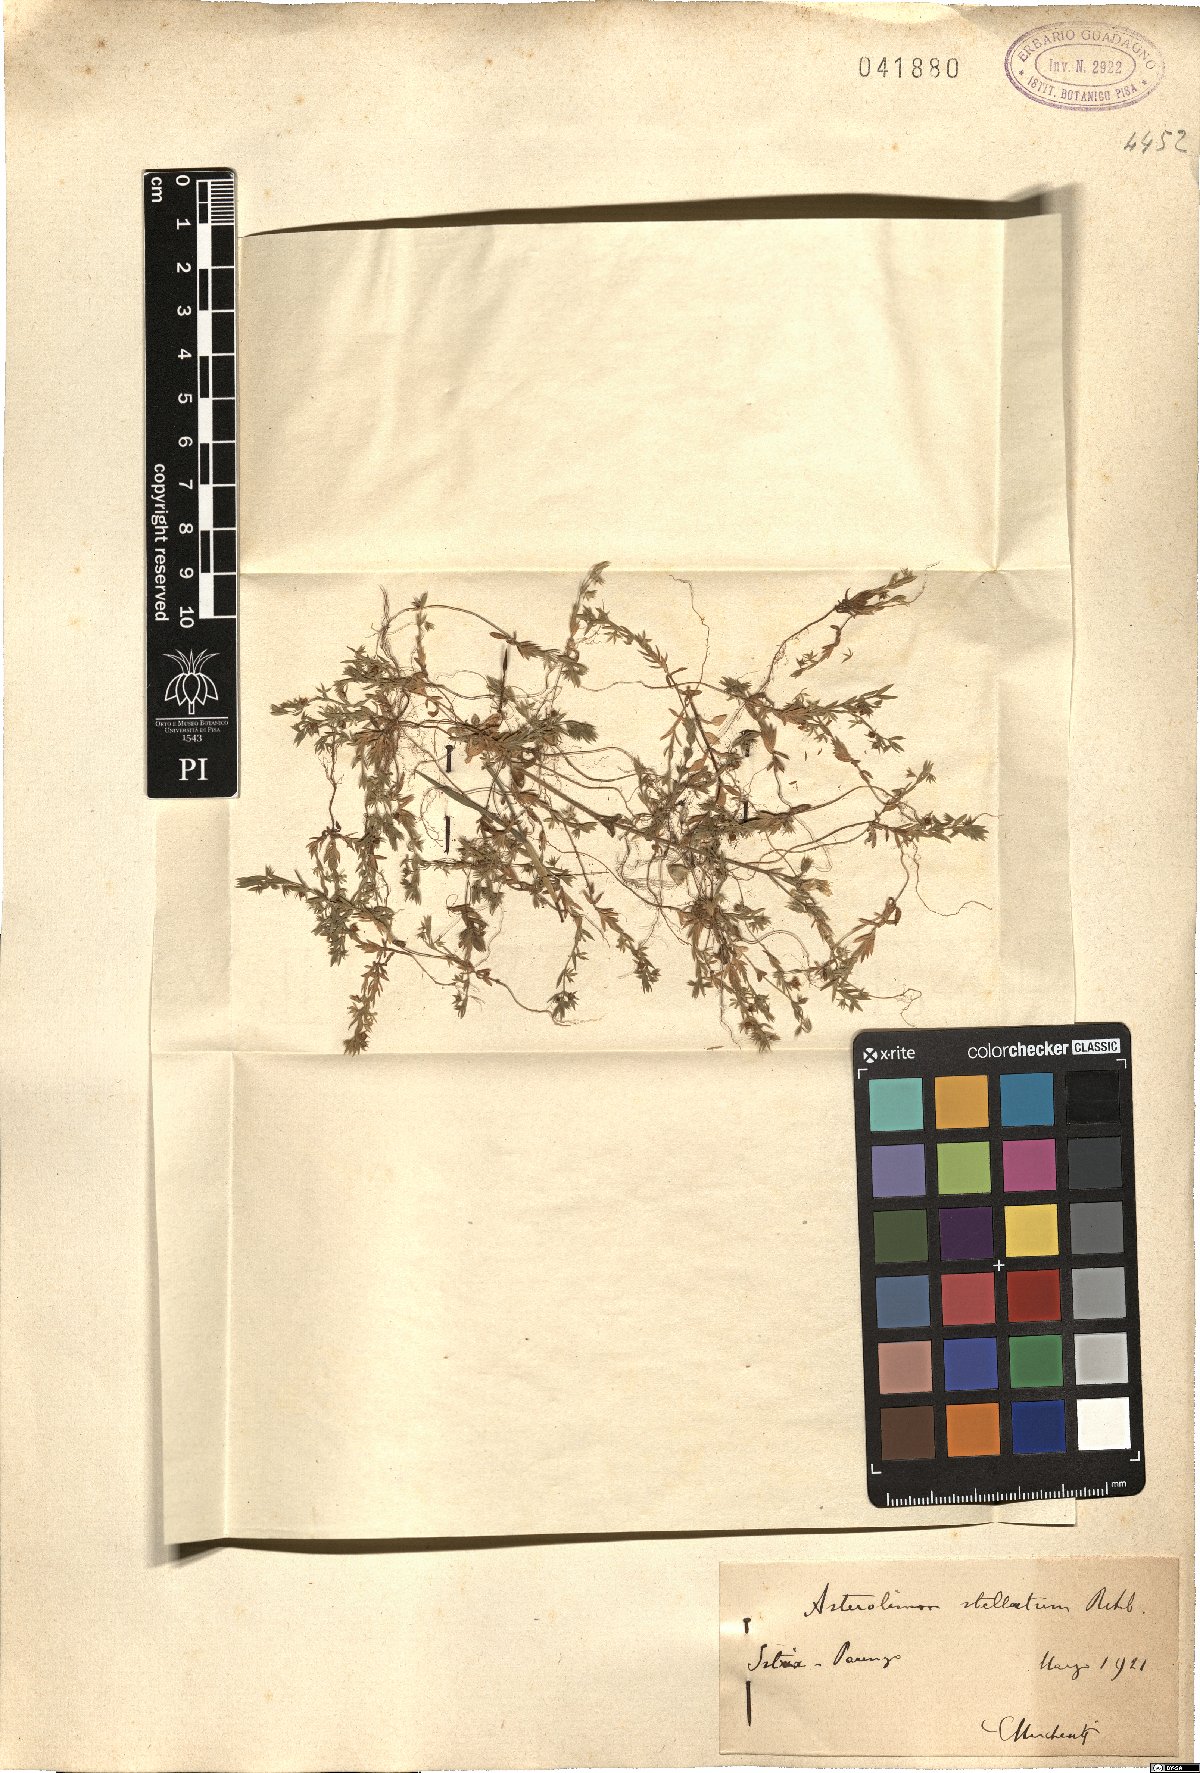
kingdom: Plantae
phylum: Tracheophyta
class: Magnoliopsida
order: Ericales
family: Primulaceae
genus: Lysimachia
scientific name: Lysimachia linum-stellatum
